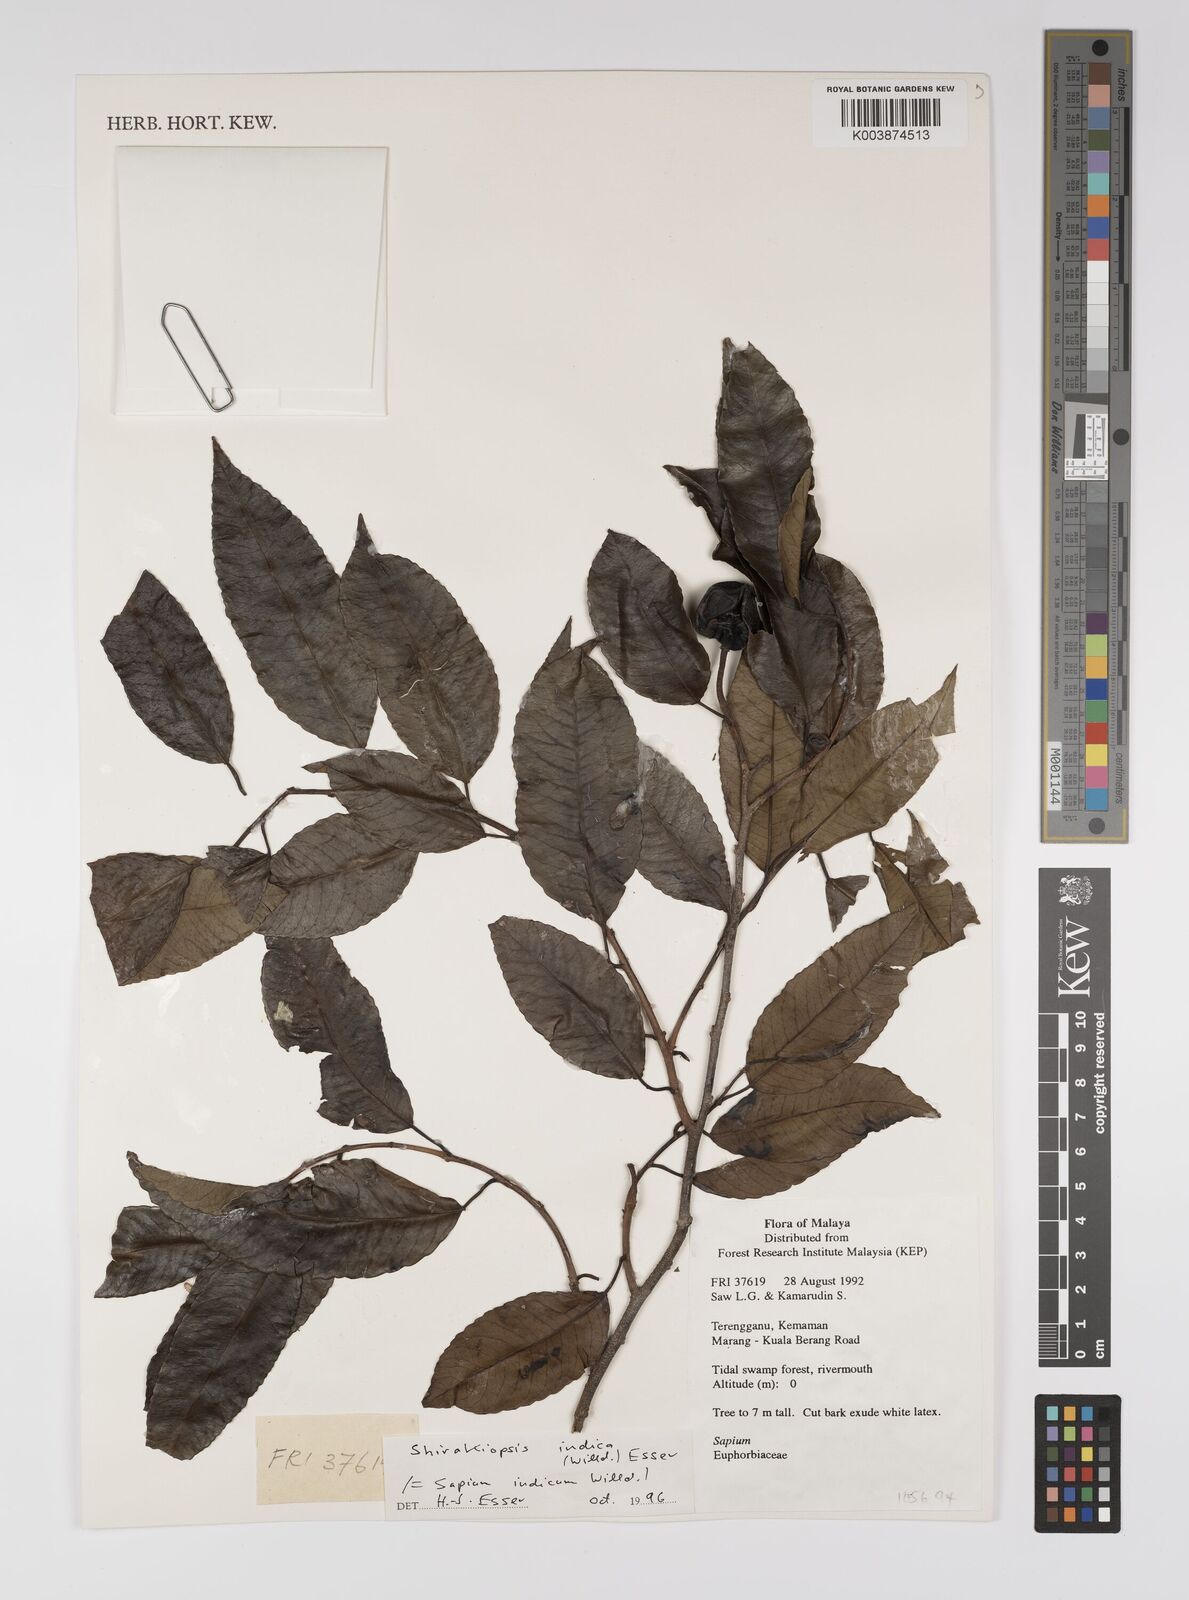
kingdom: Plantae
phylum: Tracheophyta
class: Magnoliopsida
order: Malpighiales
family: Euphorbiaceae
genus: Shirakiopsis
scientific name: Shirakiopsis indica
